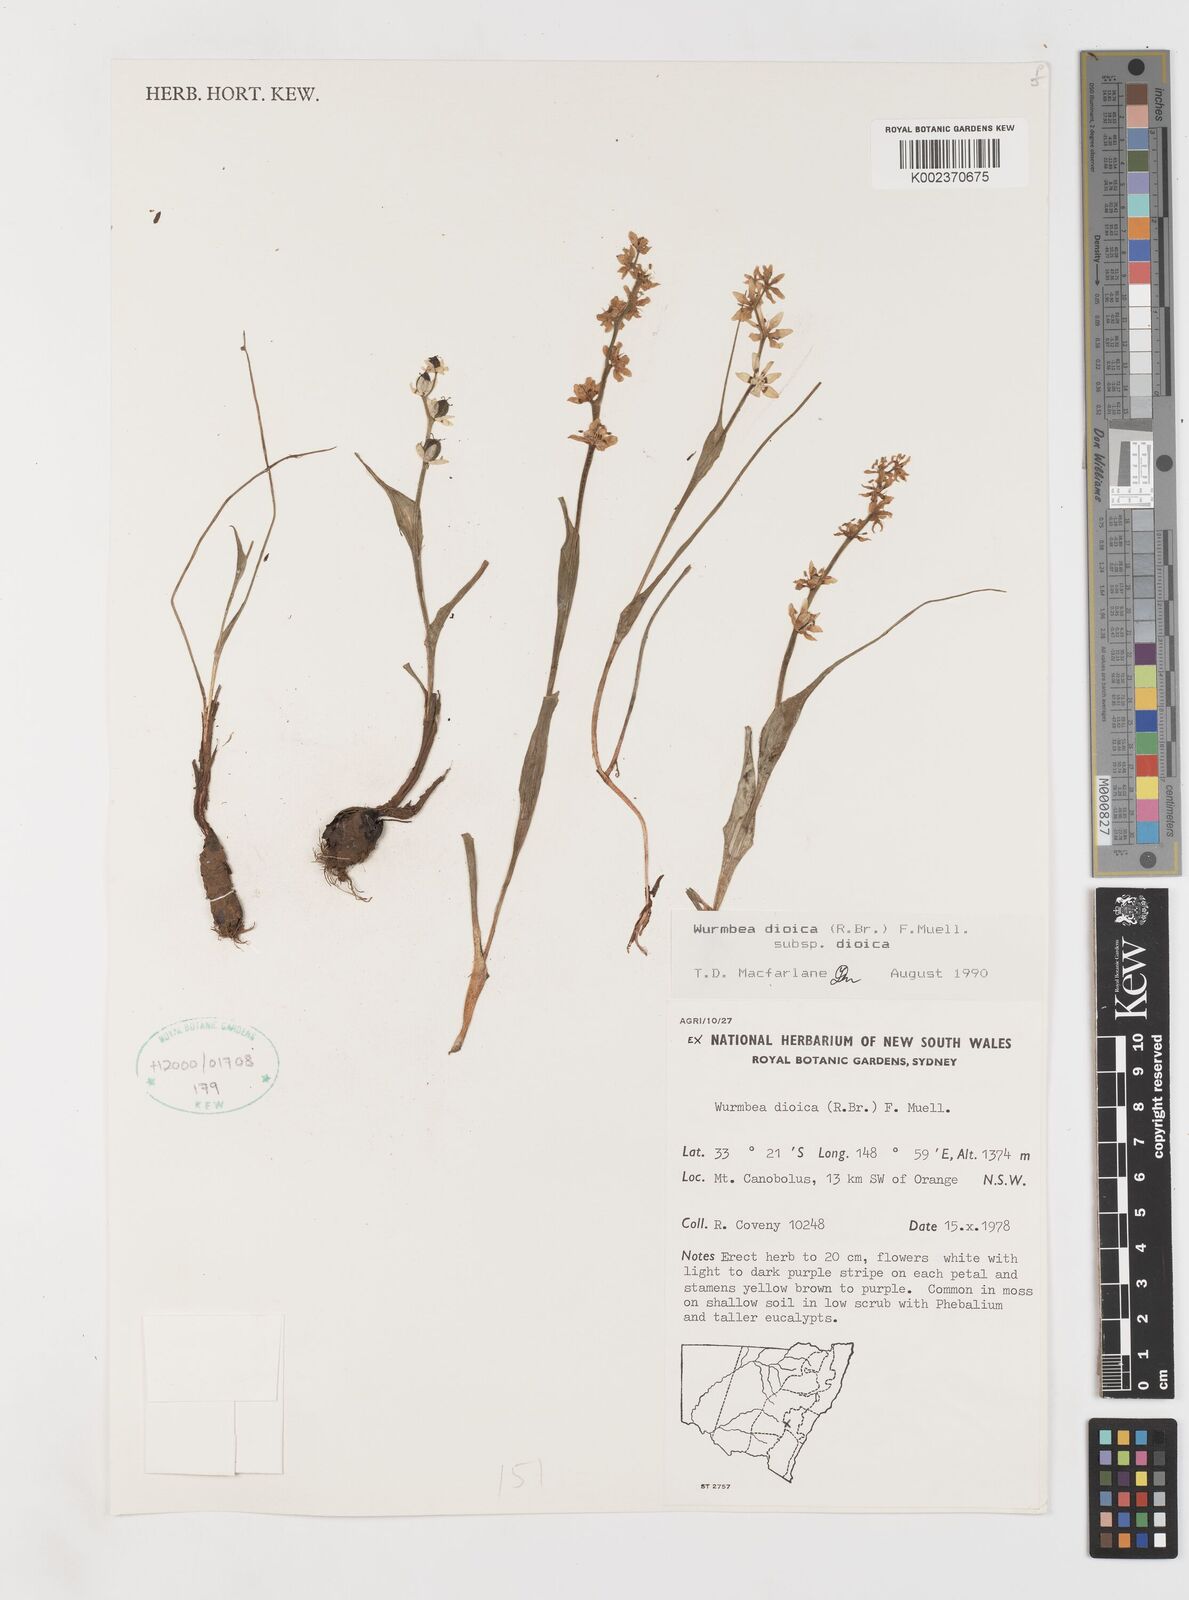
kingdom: Plantae
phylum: Tracheophyta
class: Liliopsida
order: Liliales
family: Colchicaceae
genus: Wurmbea
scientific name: Wurmbea dioica
